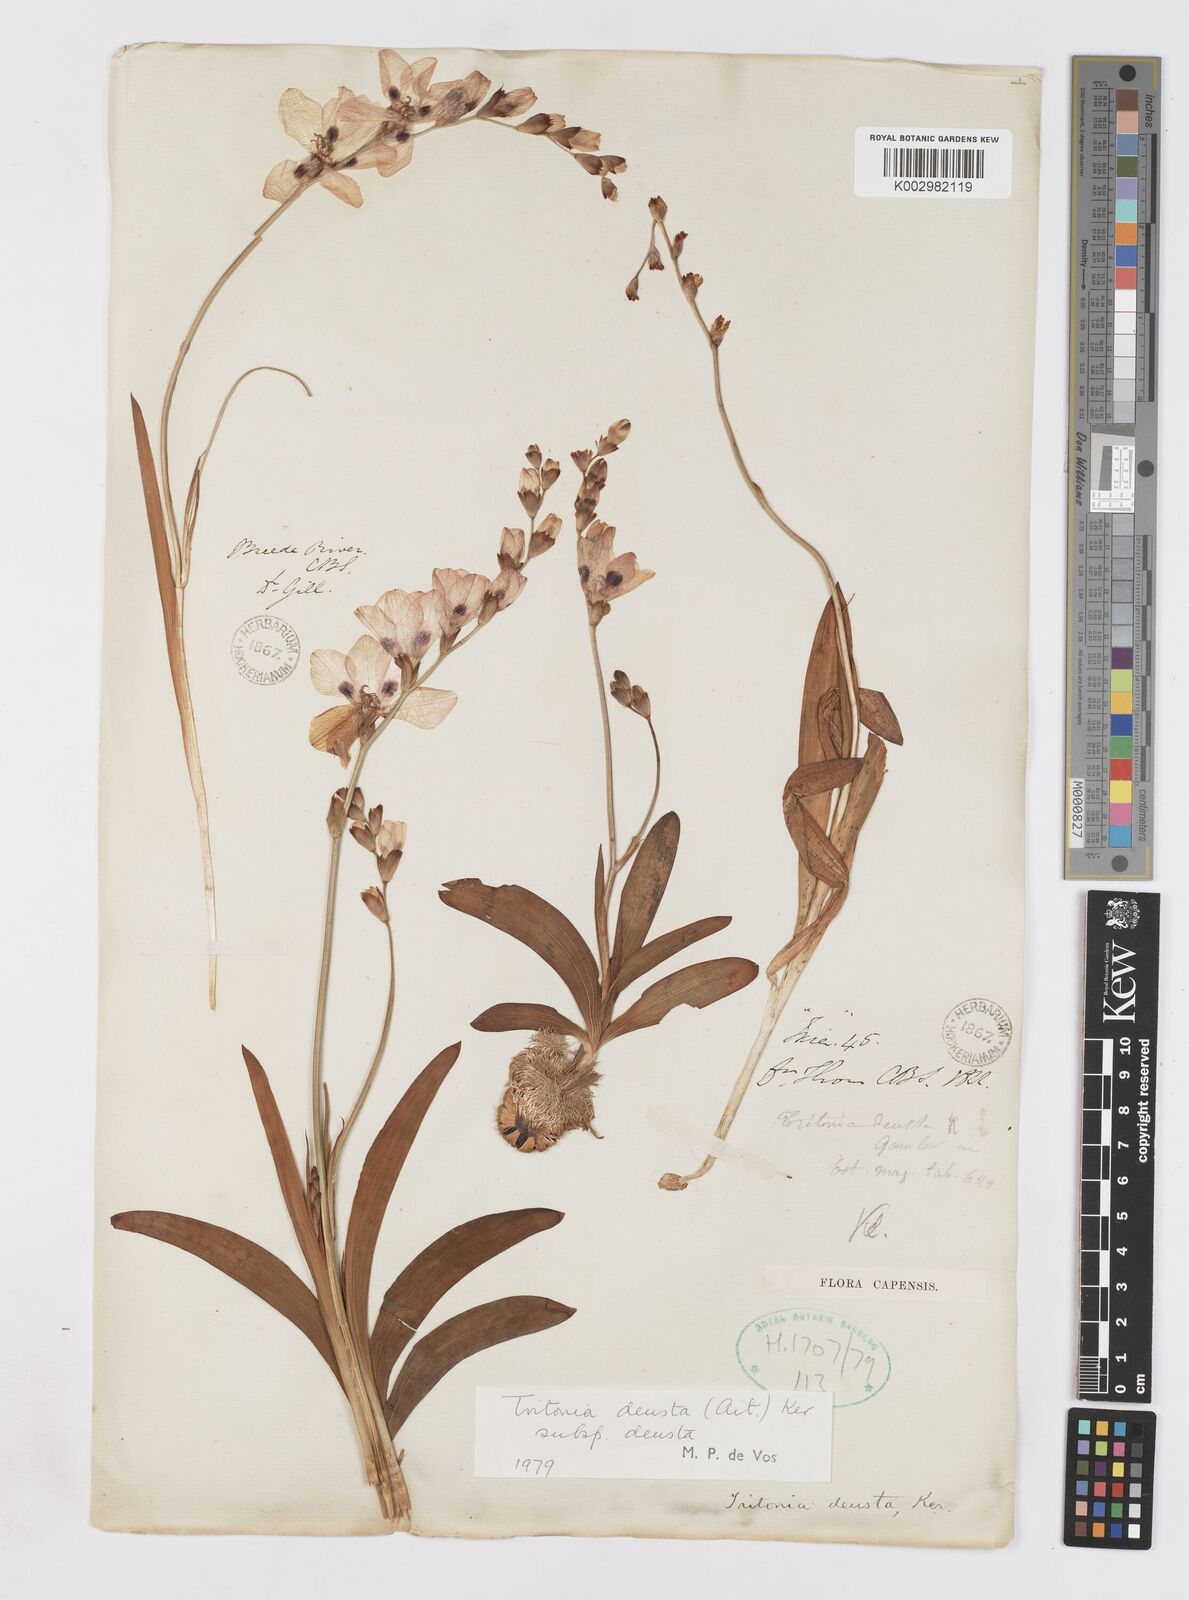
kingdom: Plantae
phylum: Tracheophyta
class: Liliopsida
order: Asparagales
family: Iridaceae
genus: Tritonia
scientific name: Tritonia deusta
